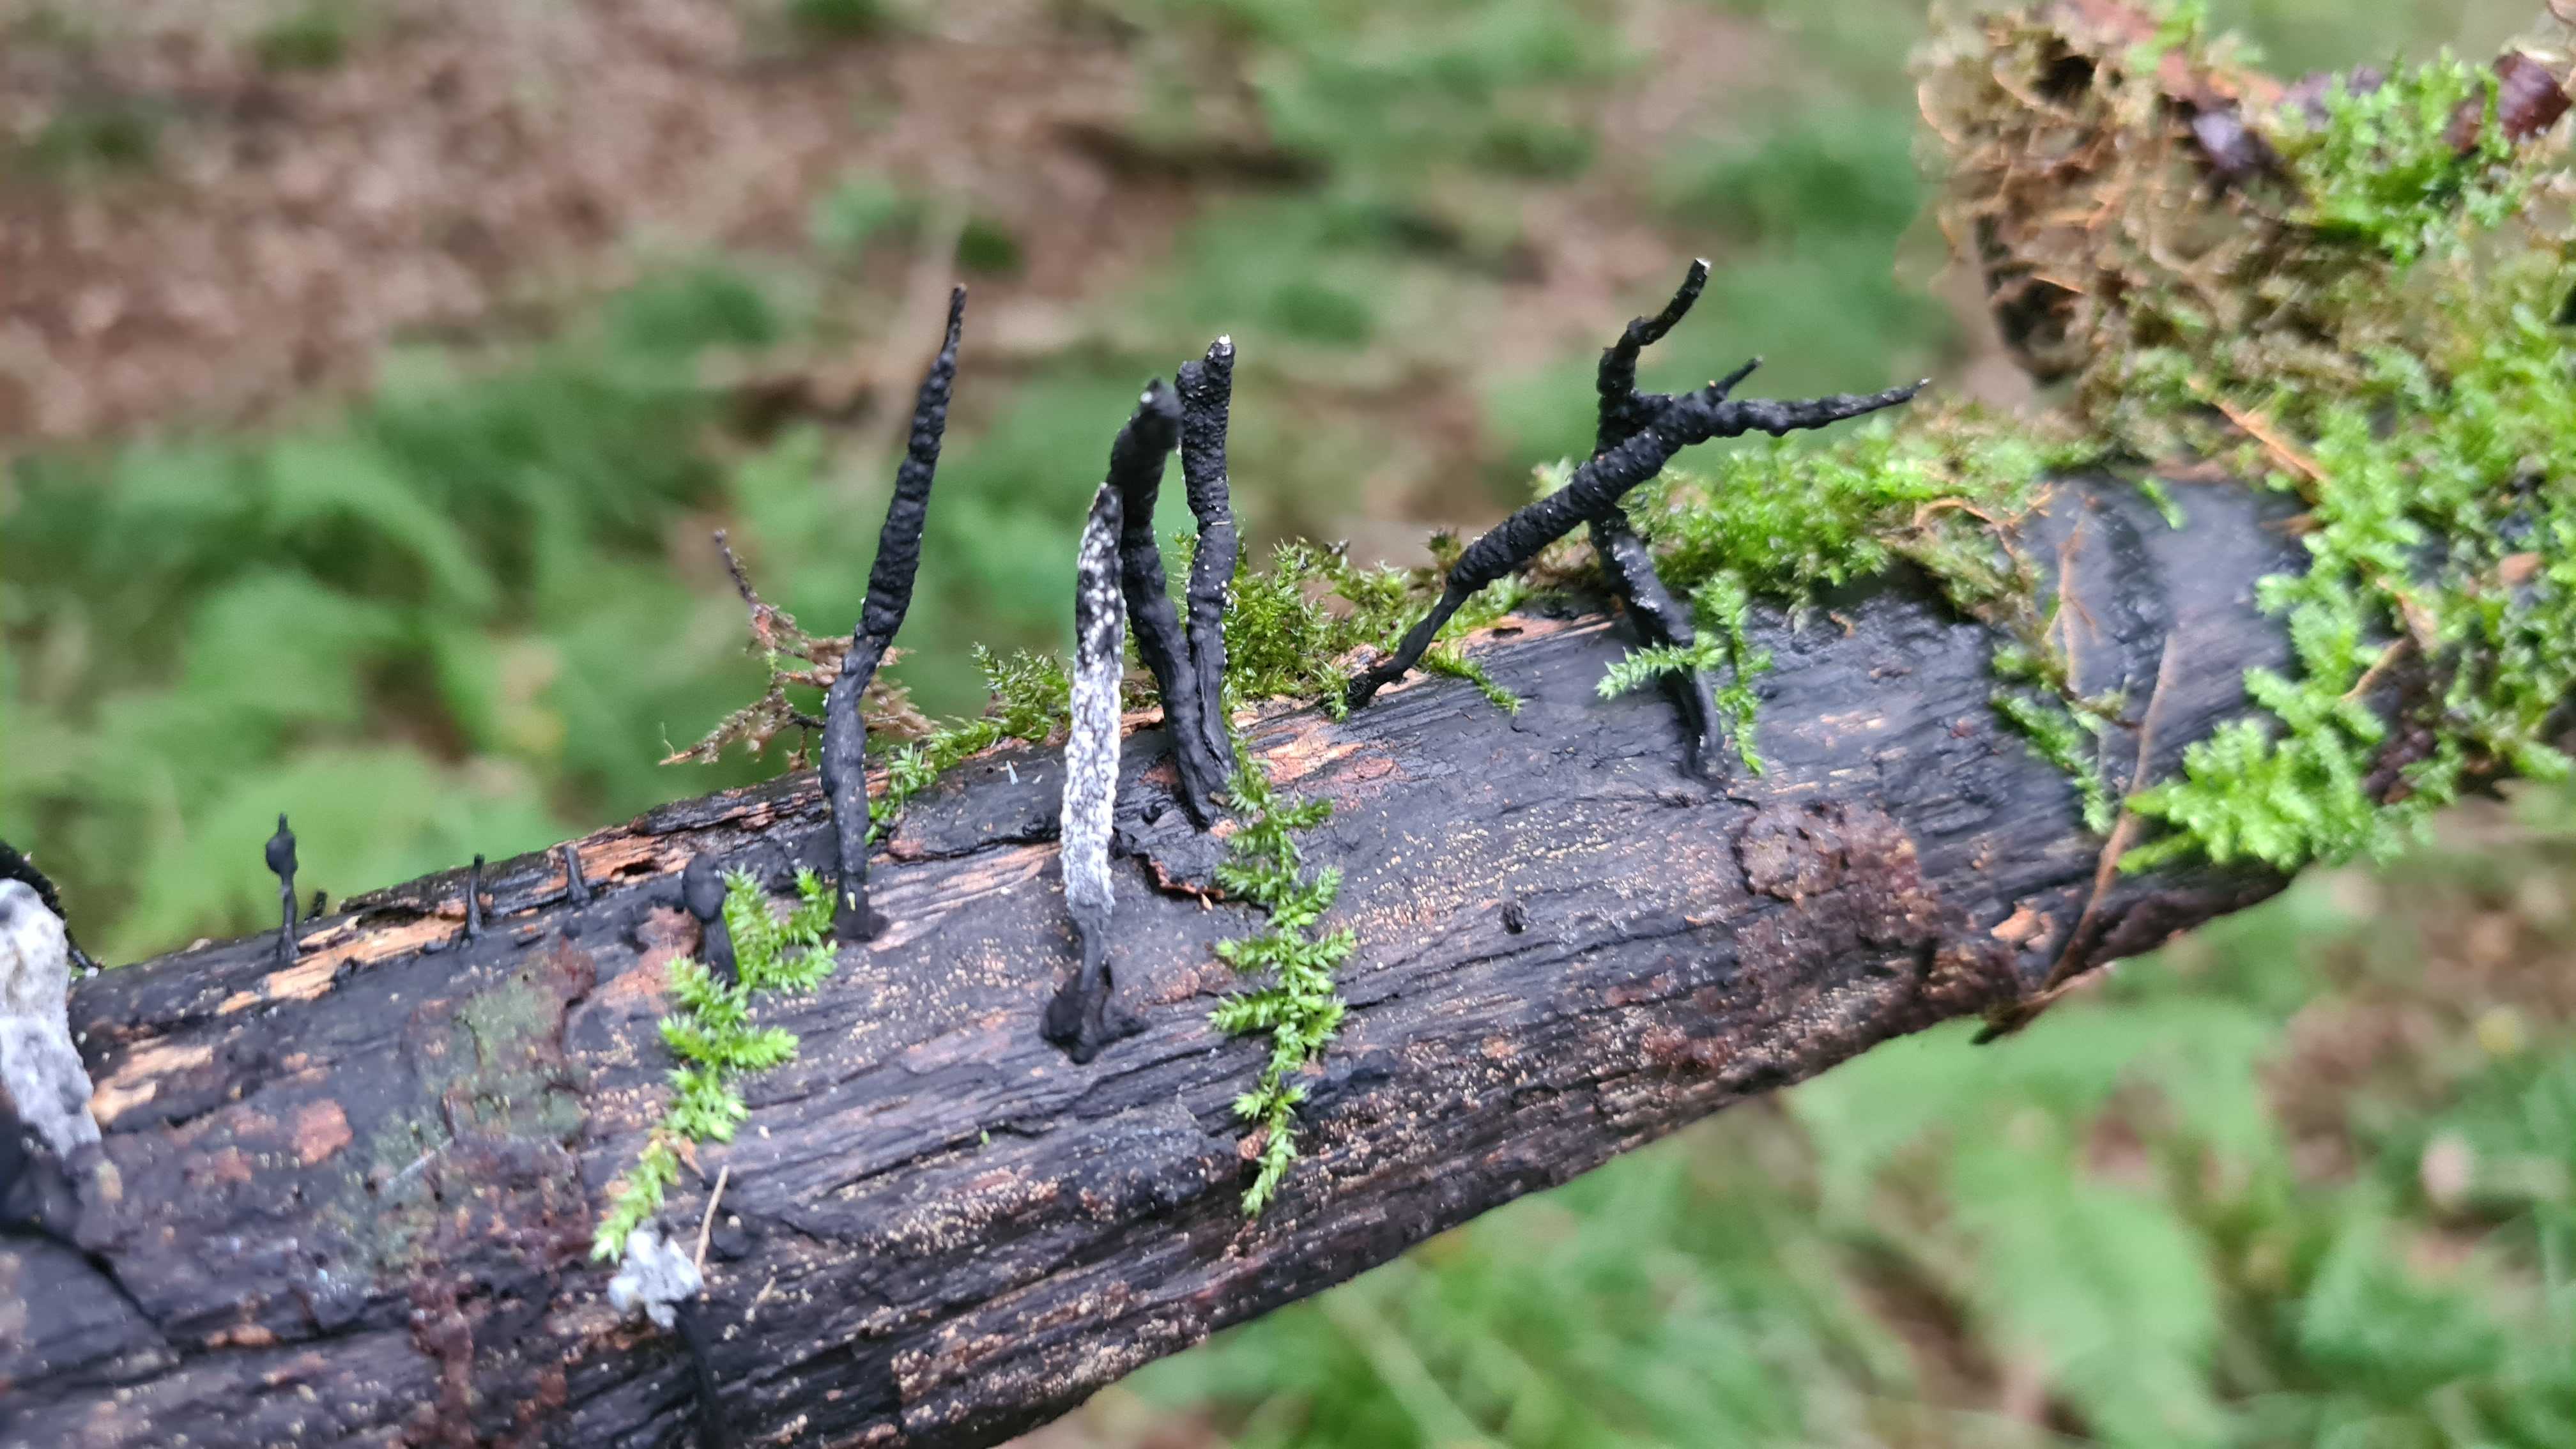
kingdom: Fungi
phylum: Ascomycota
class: Sordariomycetes
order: Xylariales
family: Xylariaceae
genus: Xylaria
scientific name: Xylaria hypoxylon
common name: grenet stødsvamp
